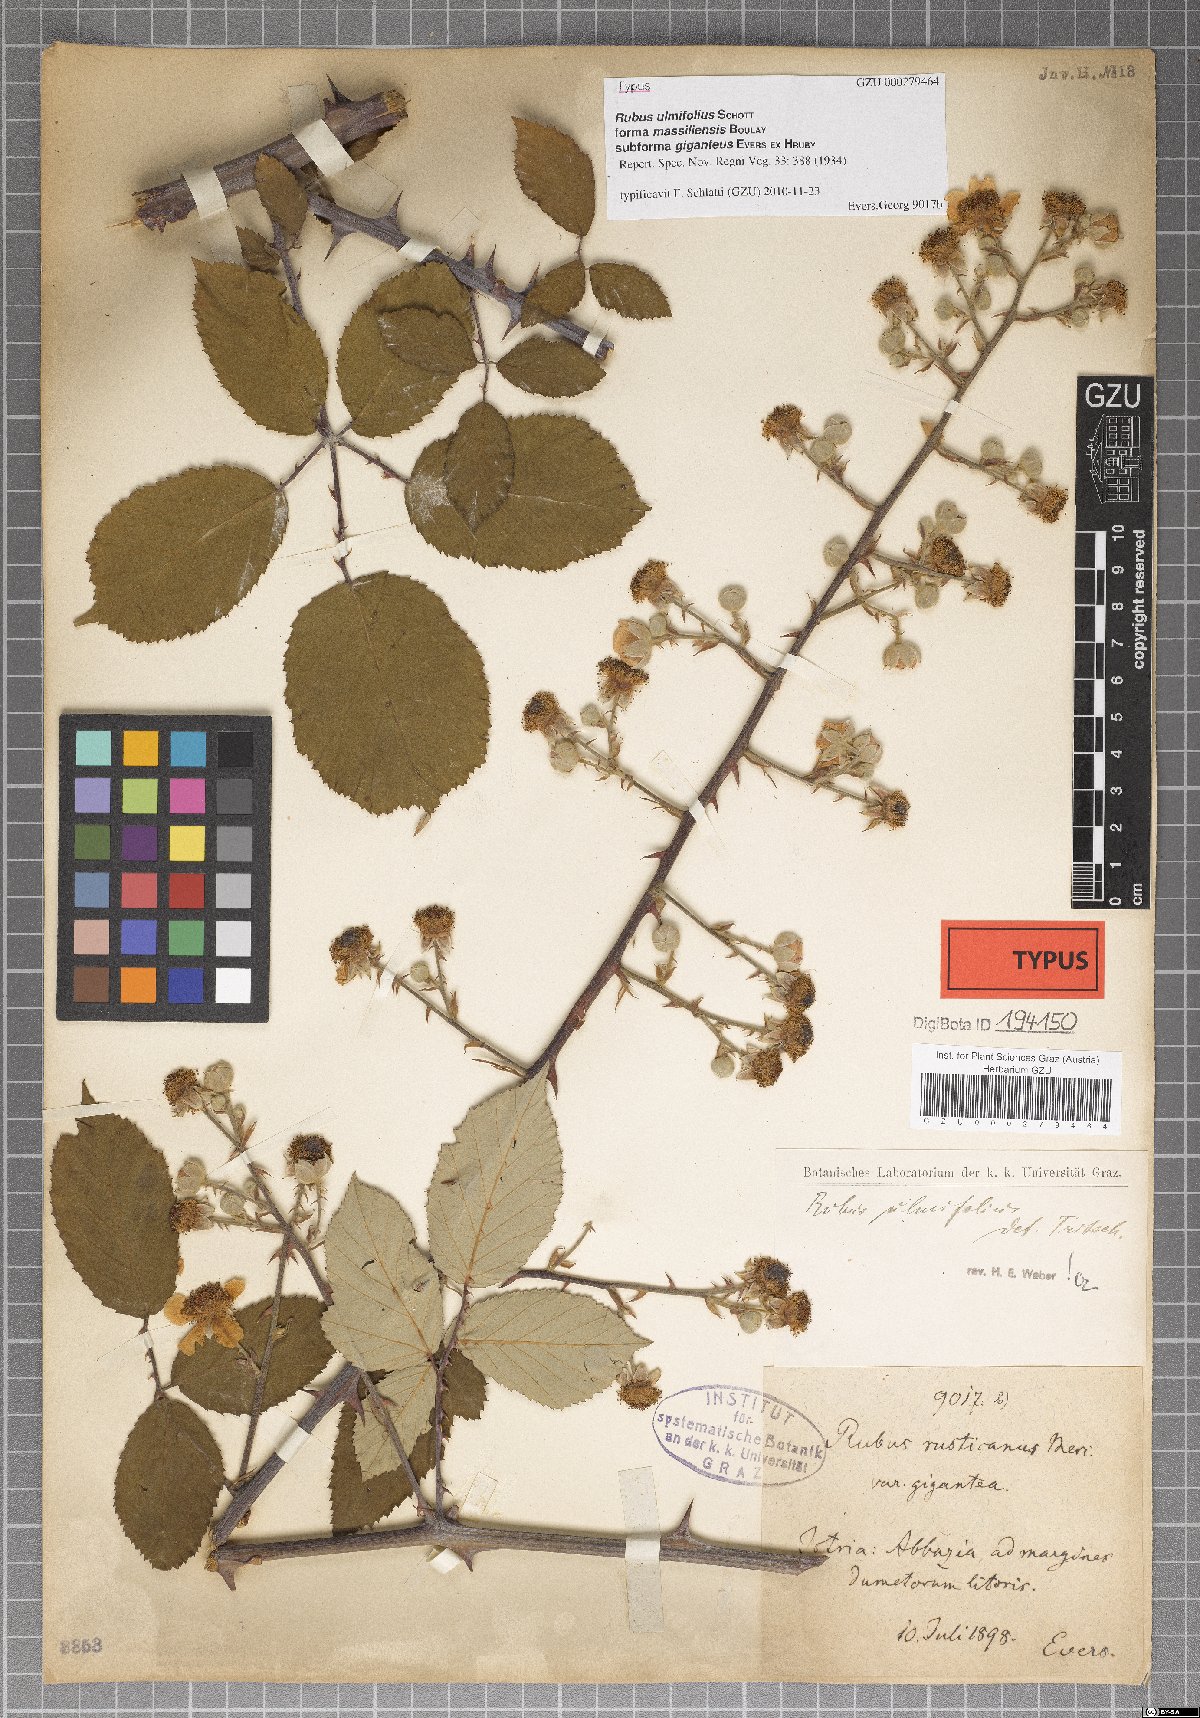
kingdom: Plantae
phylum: Tracheophyta
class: Magnoliopsida
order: Rosales
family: Rosaceae
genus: Rubus
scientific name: Rubus ulmifolius
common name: Elmleaf blackberry
